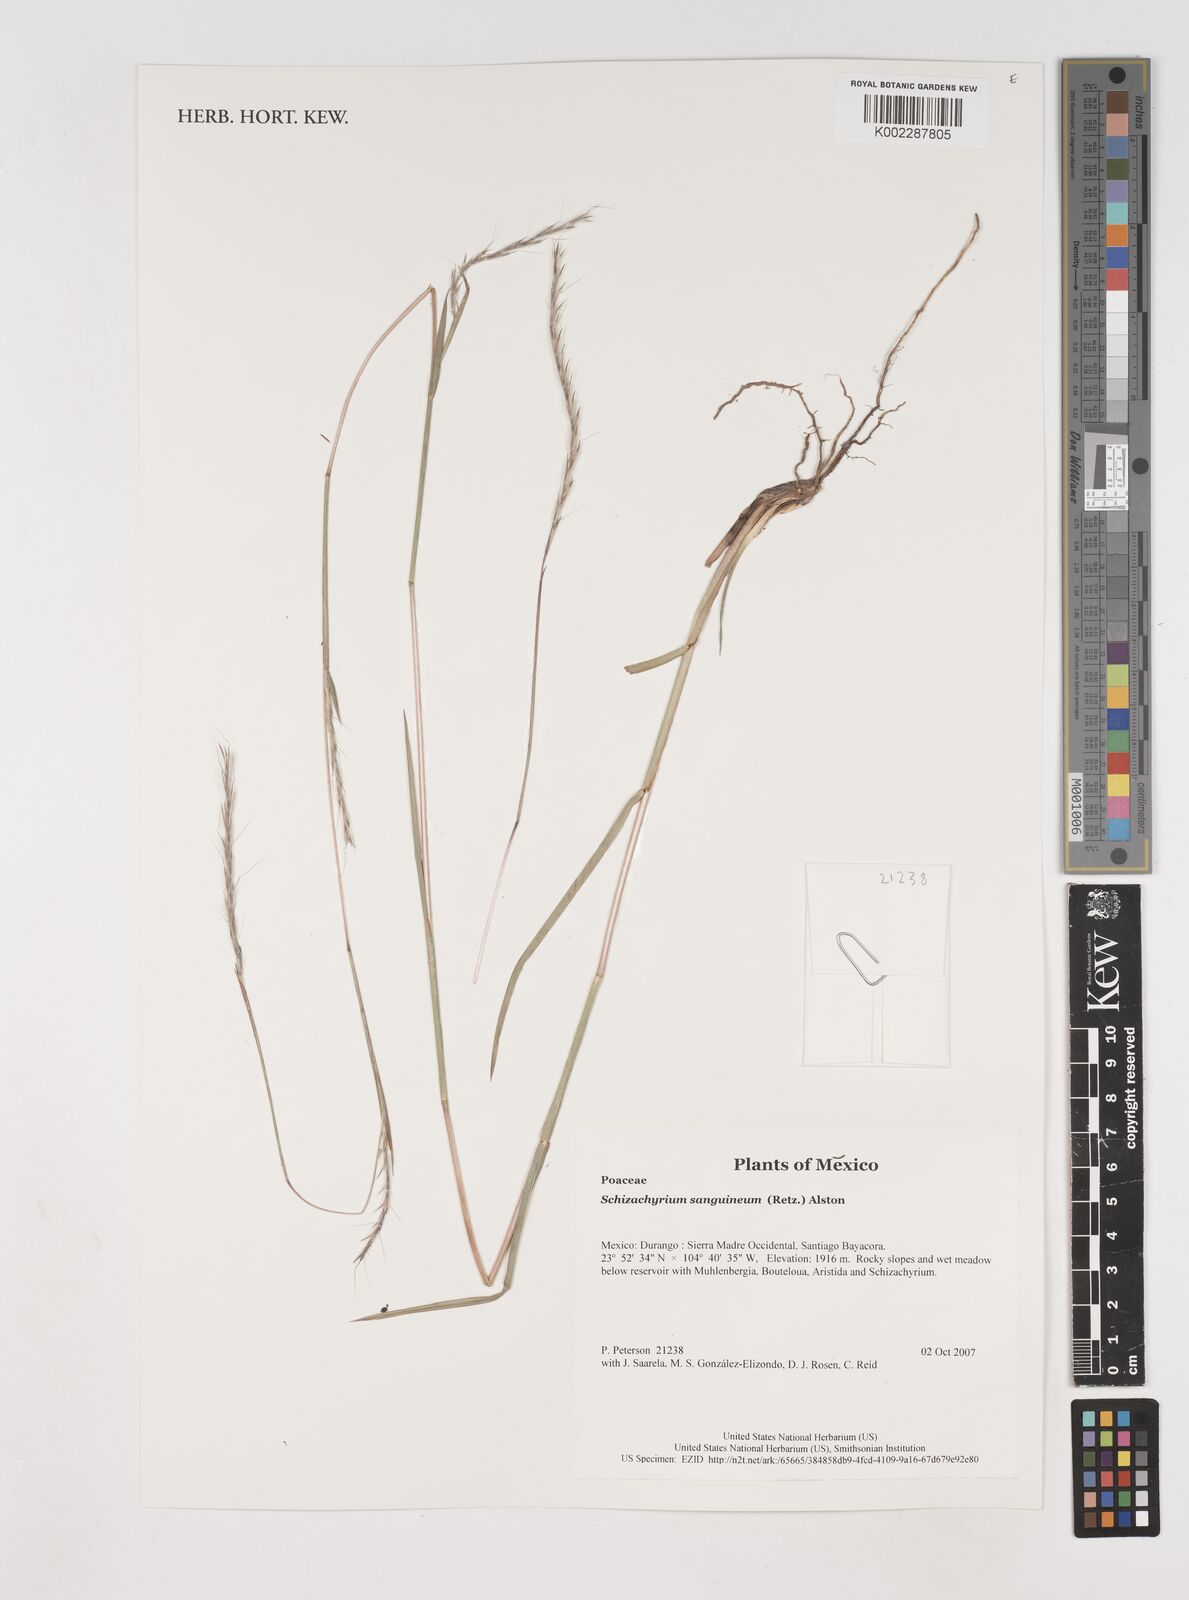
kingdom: Plantae
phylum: Tracheophyta
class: Liliopsida
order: Poales
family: Poaceae
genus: Schizachyrium
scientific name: Schizachyrium sanguineum
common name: Crimson bluestem
